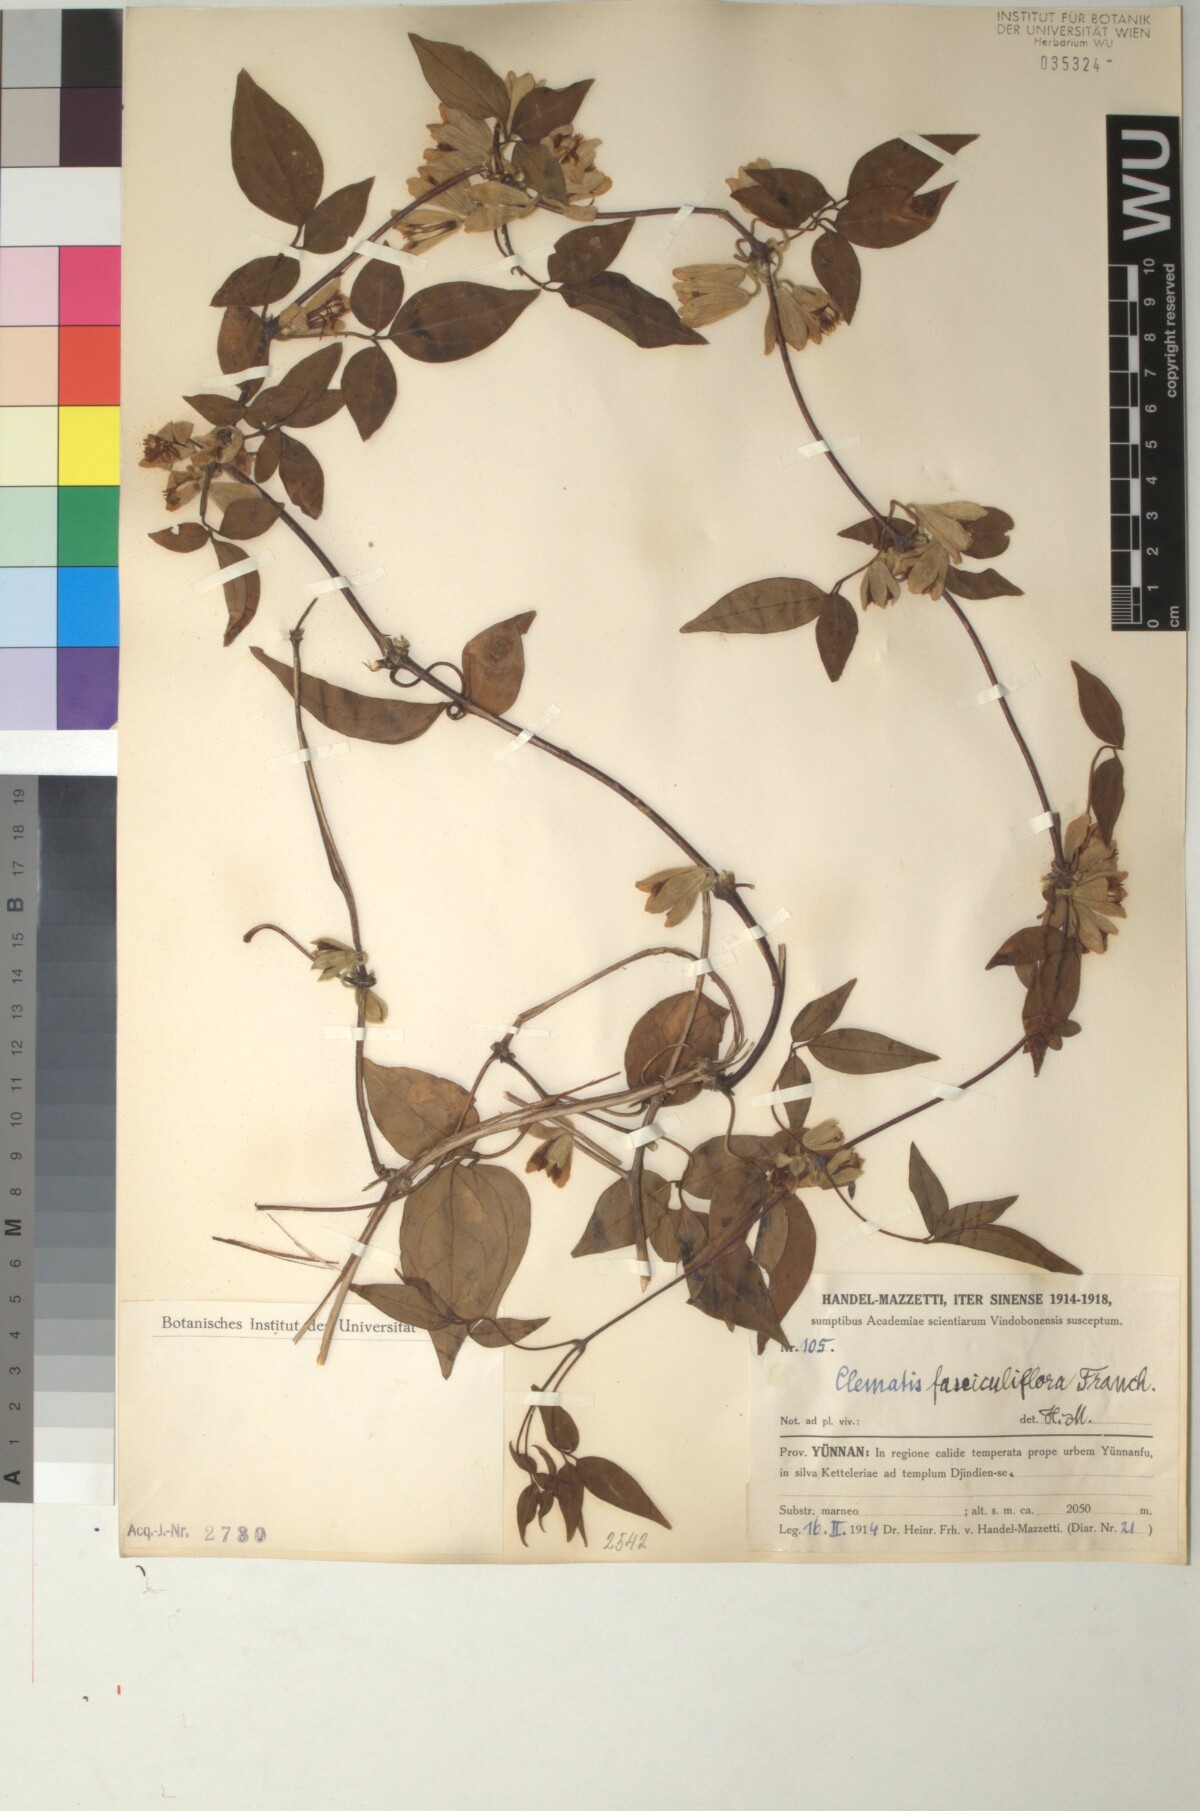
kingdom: Plantae
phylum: Tracheophyta
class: Magnoliopsida
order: Ranunculales
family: Ranunculaceae
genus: Clematis
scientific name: Clematis fasciculiflora
